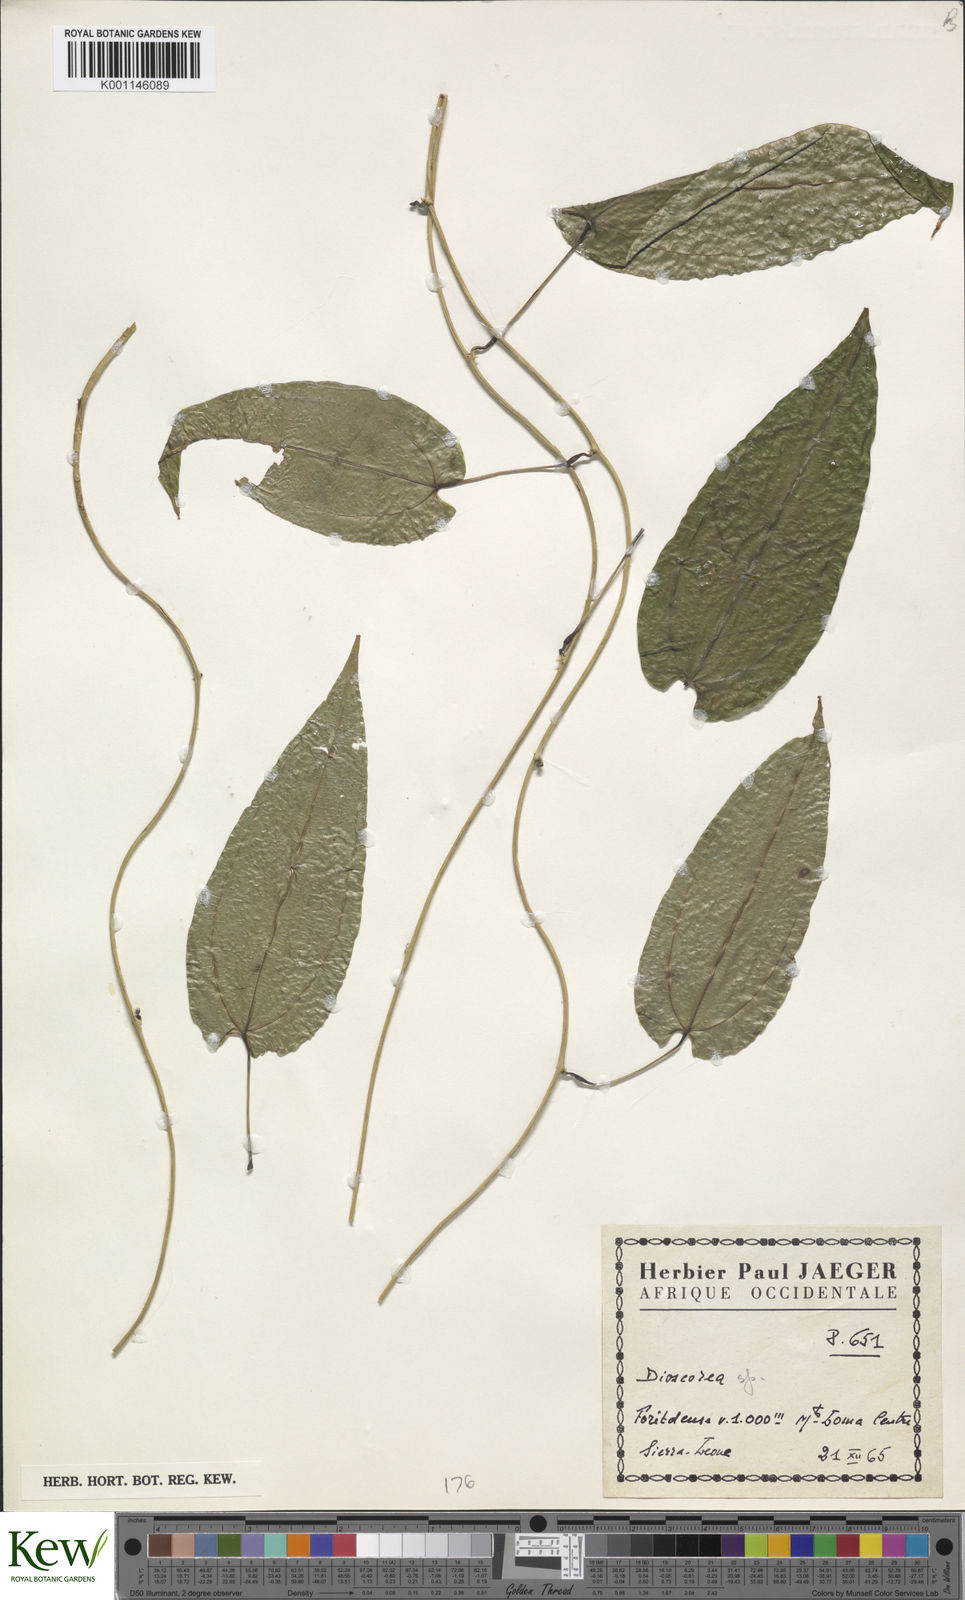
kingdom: Plantae
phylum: Tracheophyta
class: Liliopsida
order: Dioscoreales
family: Dioscoreaceae
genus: Dioscorea
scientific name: Dioscorea
